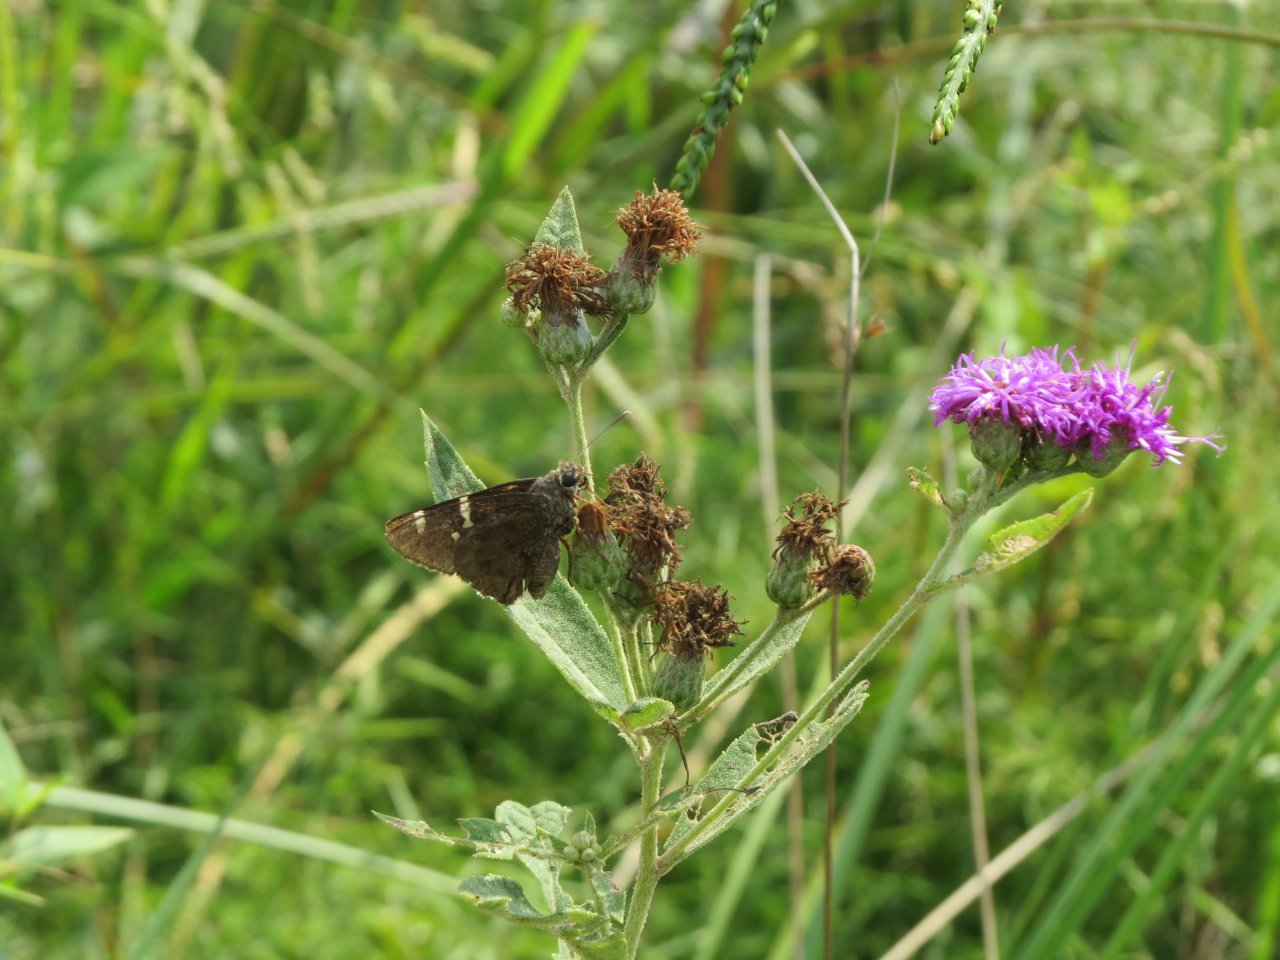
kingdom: Animalia
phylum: Arthropoda
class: Insecta
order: Lepidoptera
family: Hesperiidae
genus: Autochton
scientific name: Autochton
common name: Southern Cloudywing
